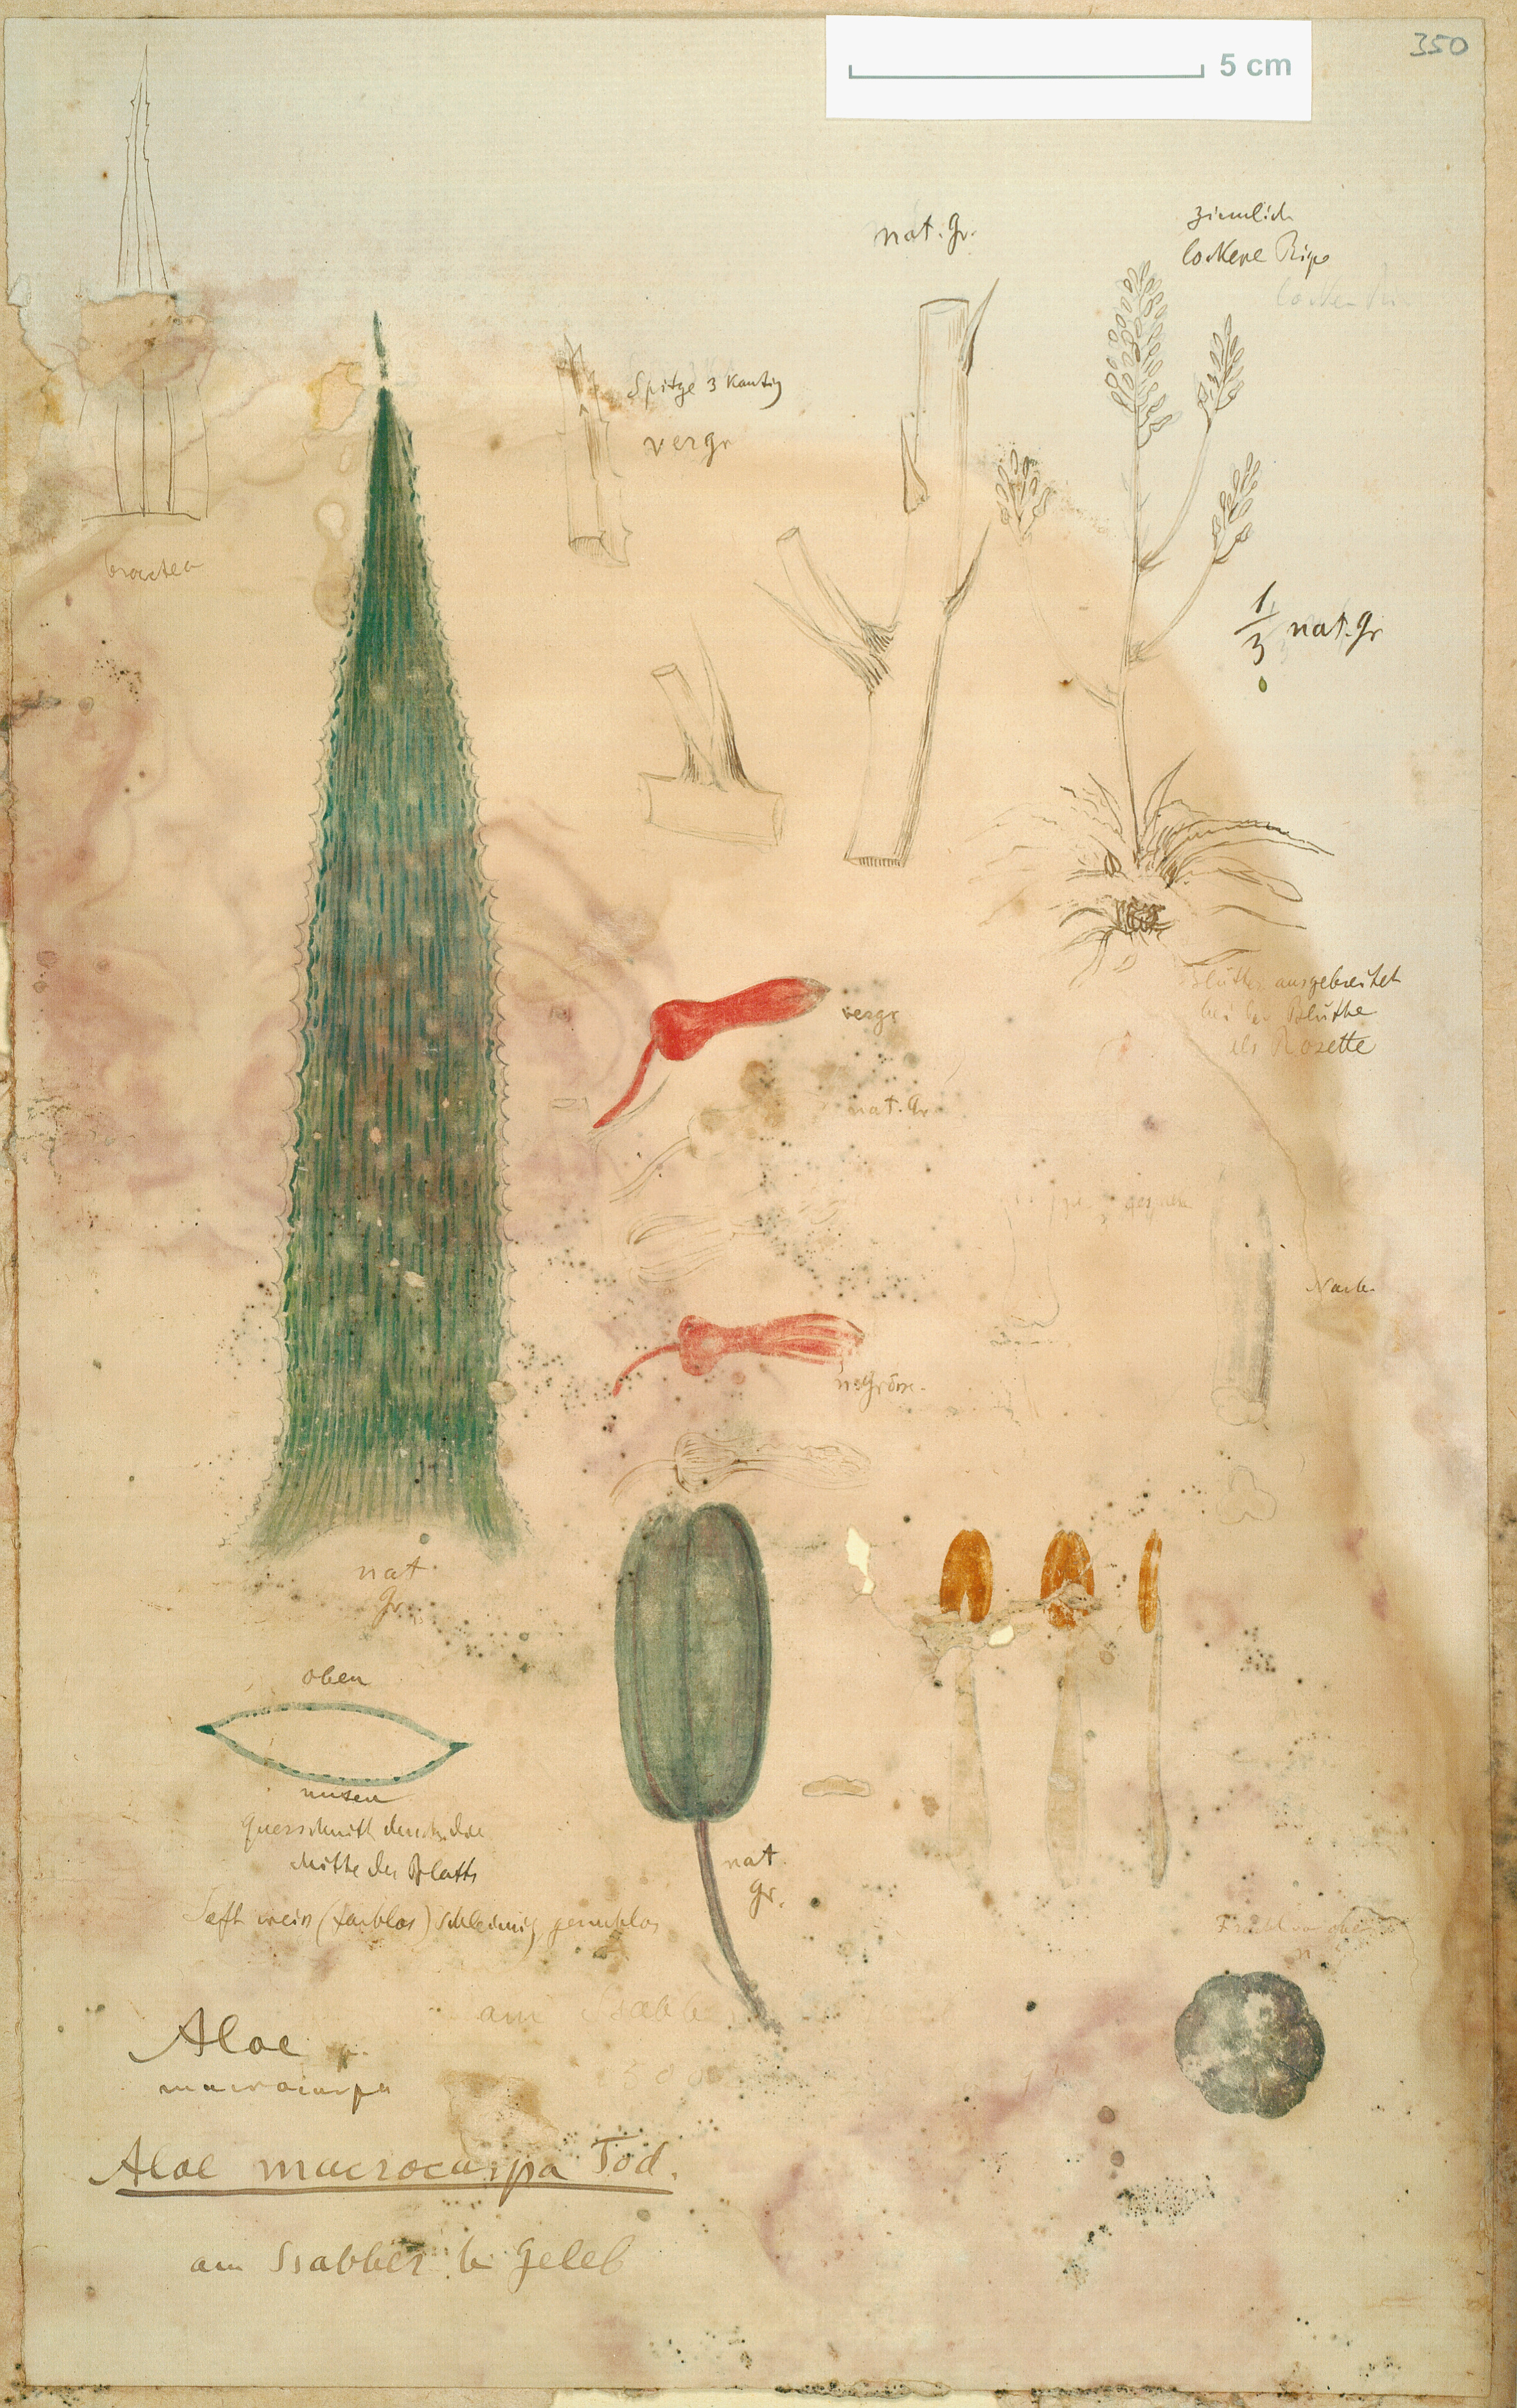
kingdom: Plantae
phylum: Tracheophyta
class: Liliopsida
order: Asparagales
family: Asphodelaceae
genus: Aloe
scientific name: Aloe macrocarpa
